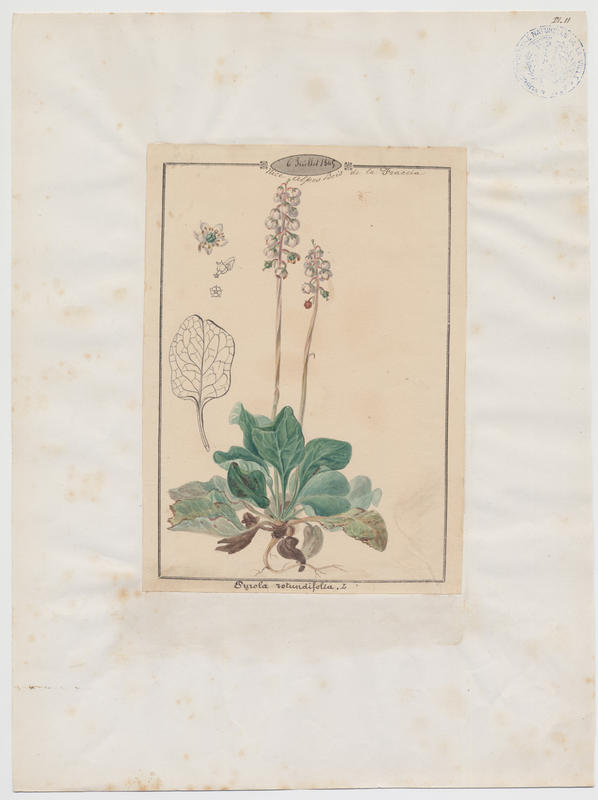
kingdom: Plantae
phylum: Tracheophyta
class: Magnoliopsida
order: Ericales
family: Ericaceae
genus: Pyrola
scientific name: Pyrola rotundifolia
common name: Round-leaved wintergreen
